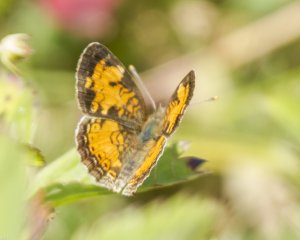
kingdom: Animalia
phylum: Arthropoda
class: Insecta
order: Lepidoptera
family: Nymphalidae
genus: Phyciodes
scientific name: Phyciodes tharos
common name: Northern Crescent
